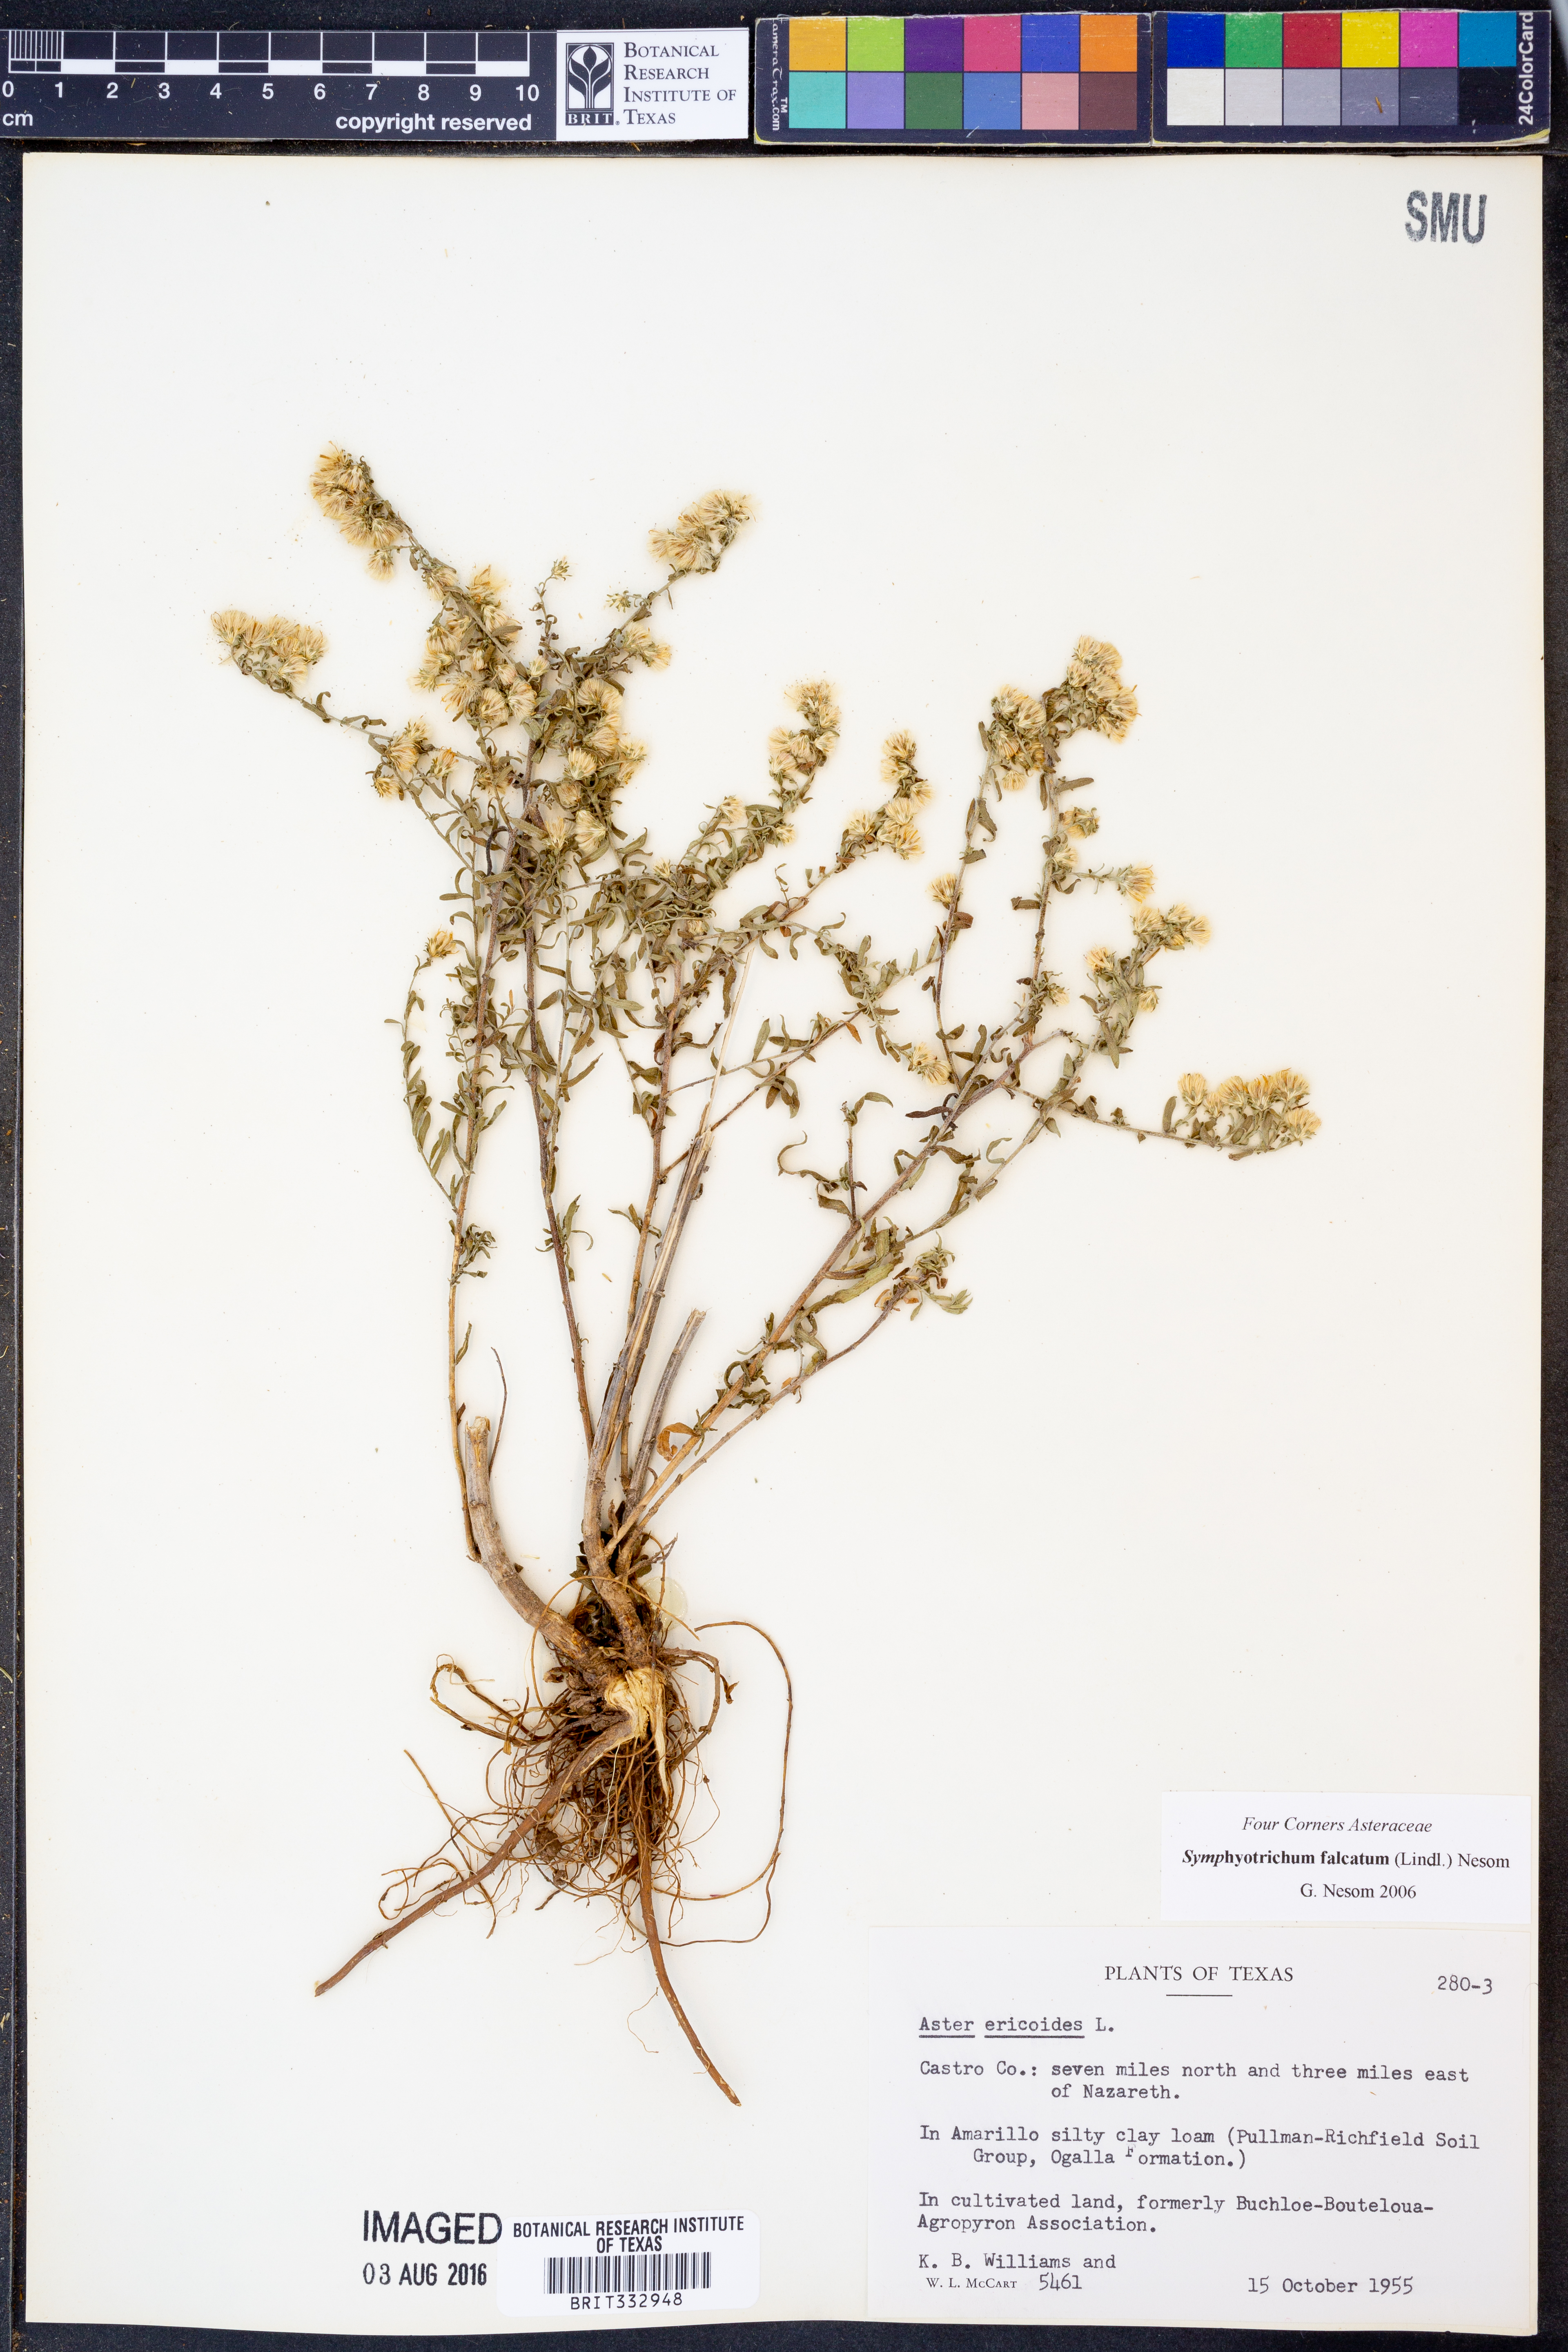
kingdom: Plantae
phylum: Tracheophyta
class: Magnoliopsida
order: Asterales
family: Asteraceae
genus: Symphyotrichum
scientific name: Symphyotrichum falcatum
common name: Creeping white prairie aster
